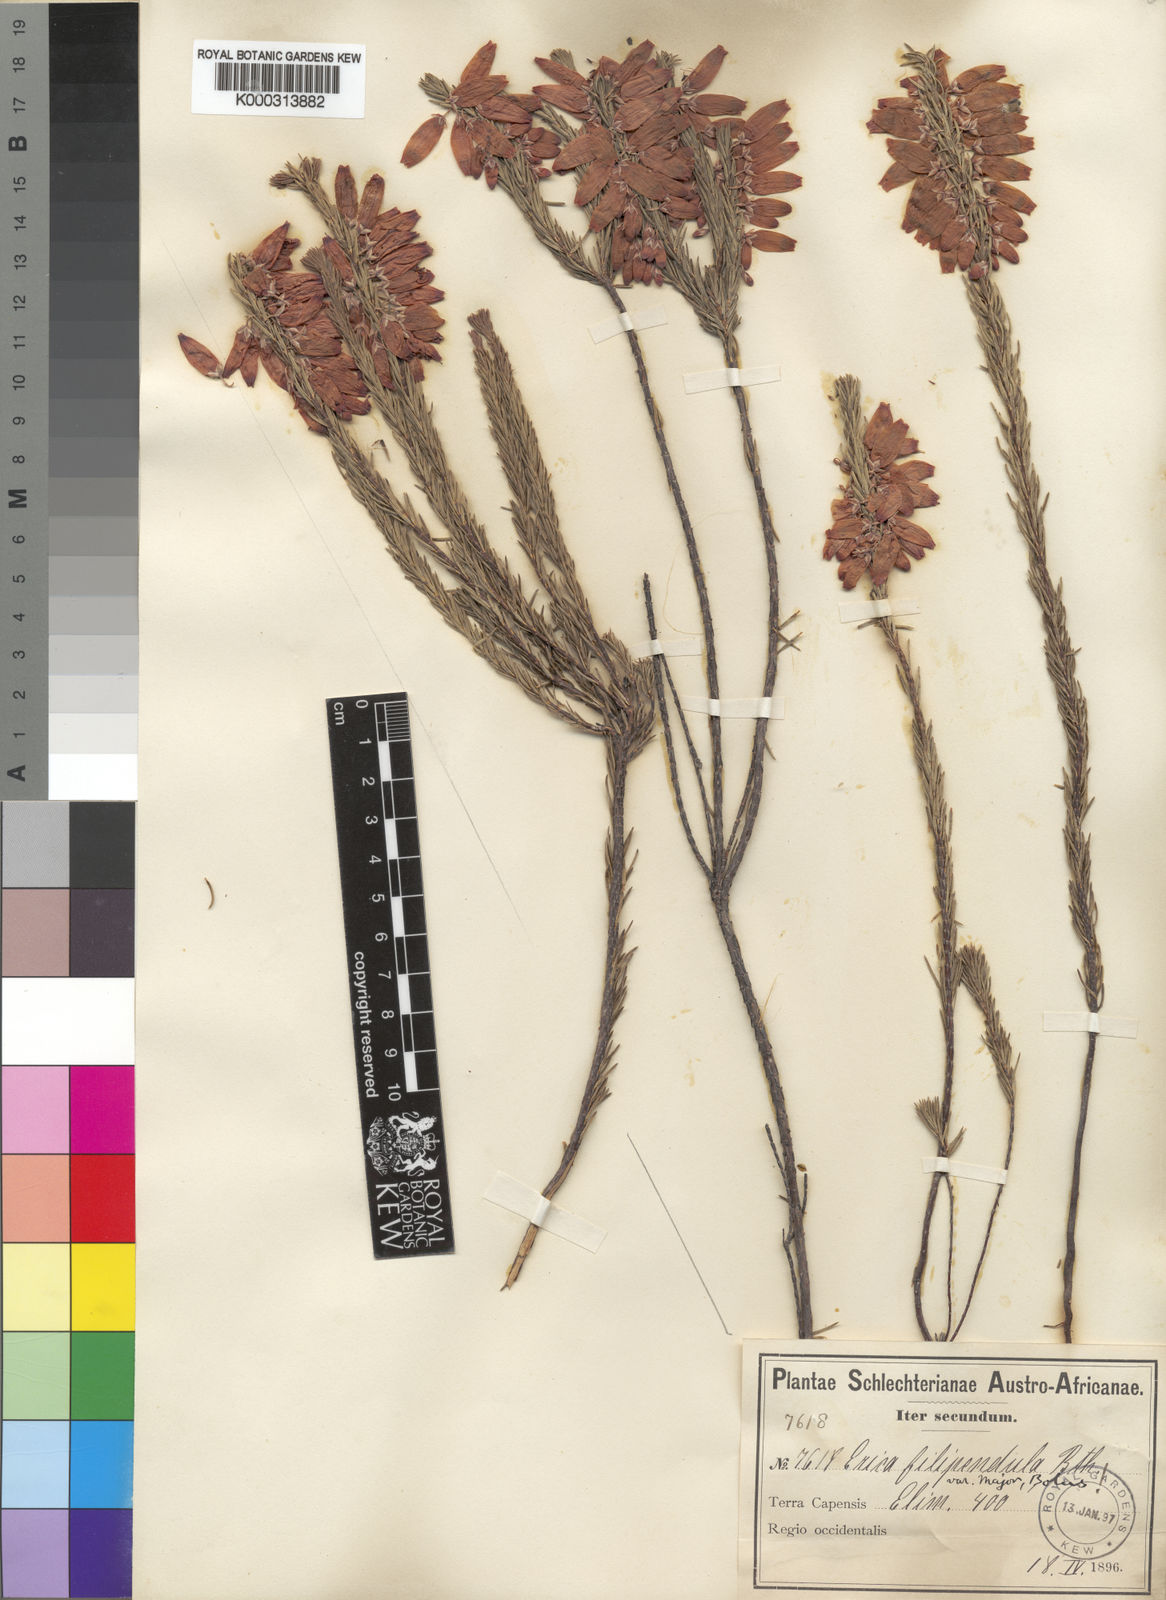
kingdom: Plantae
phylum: Tracheophyta
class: Magnoliopsida
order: Ericales
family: Ericaceae
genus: Erica
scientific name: Erica filipendula
